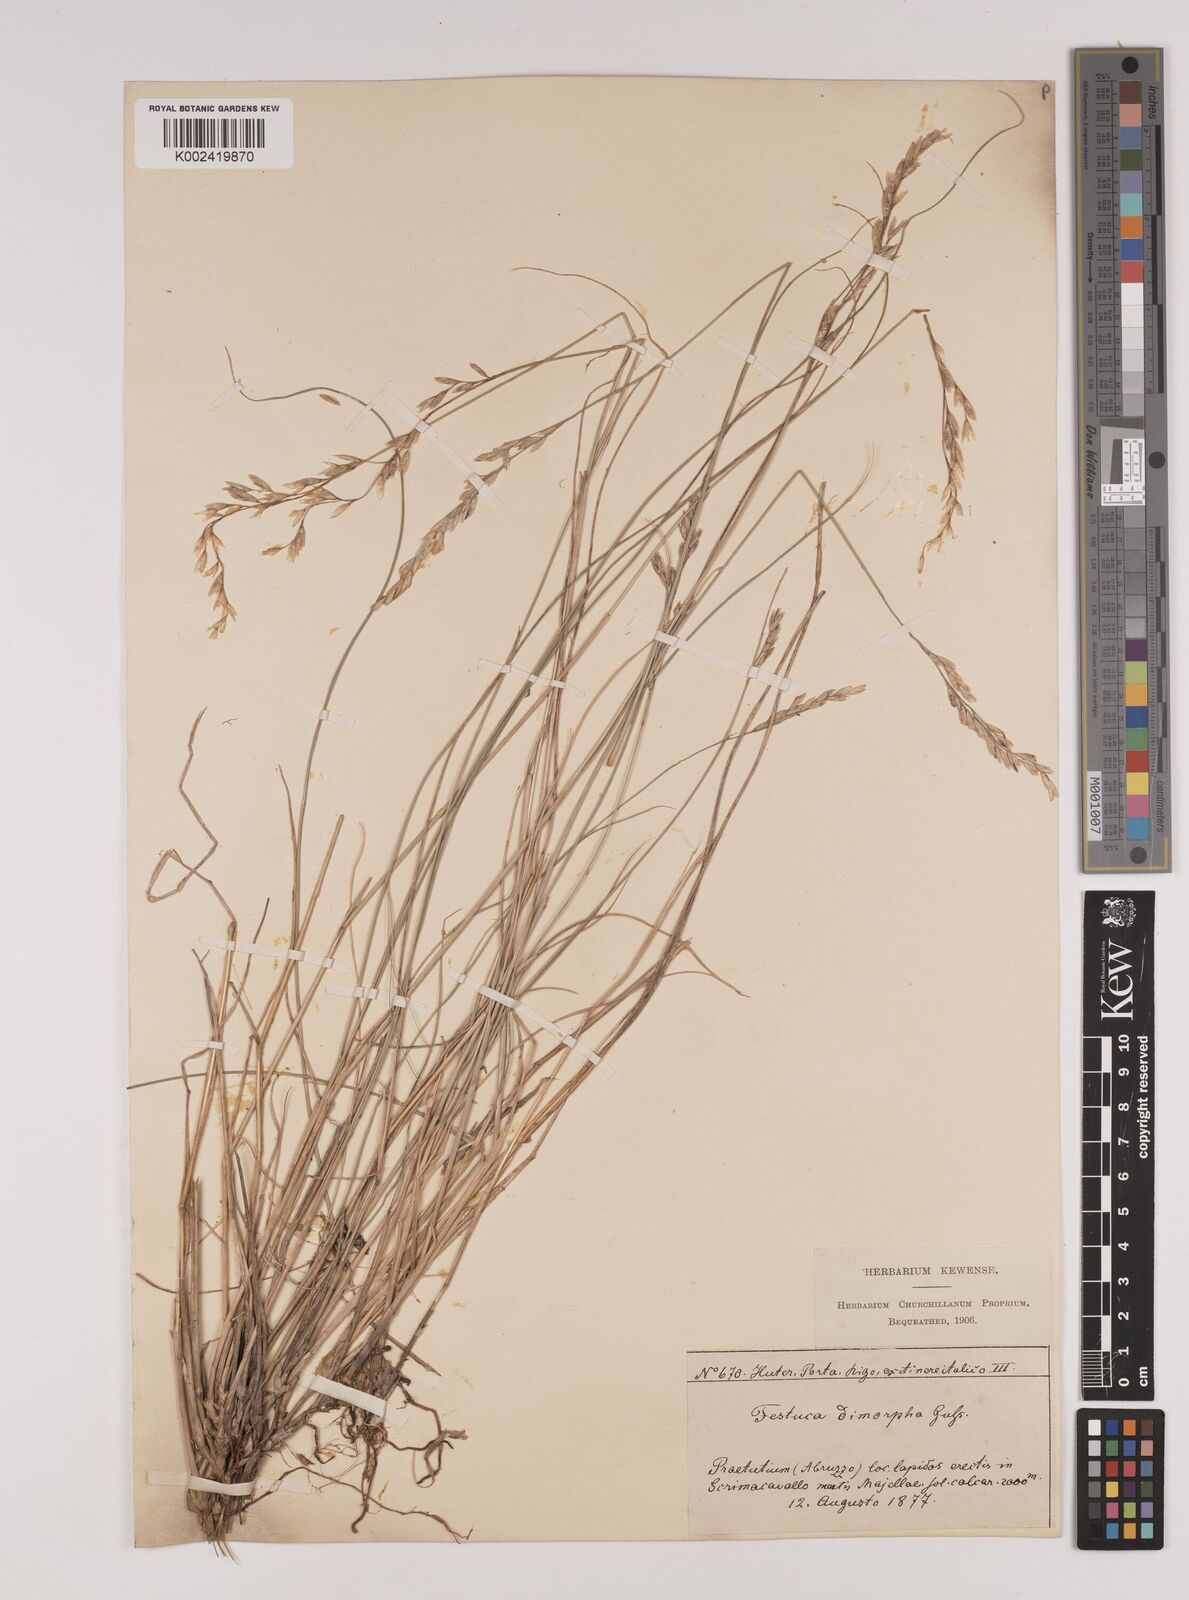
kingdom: Plantae
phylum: Tracheophyta
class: Liliopsida
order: Poales
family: Poaceae
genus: Festuca
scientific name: Festuca dimorpha
